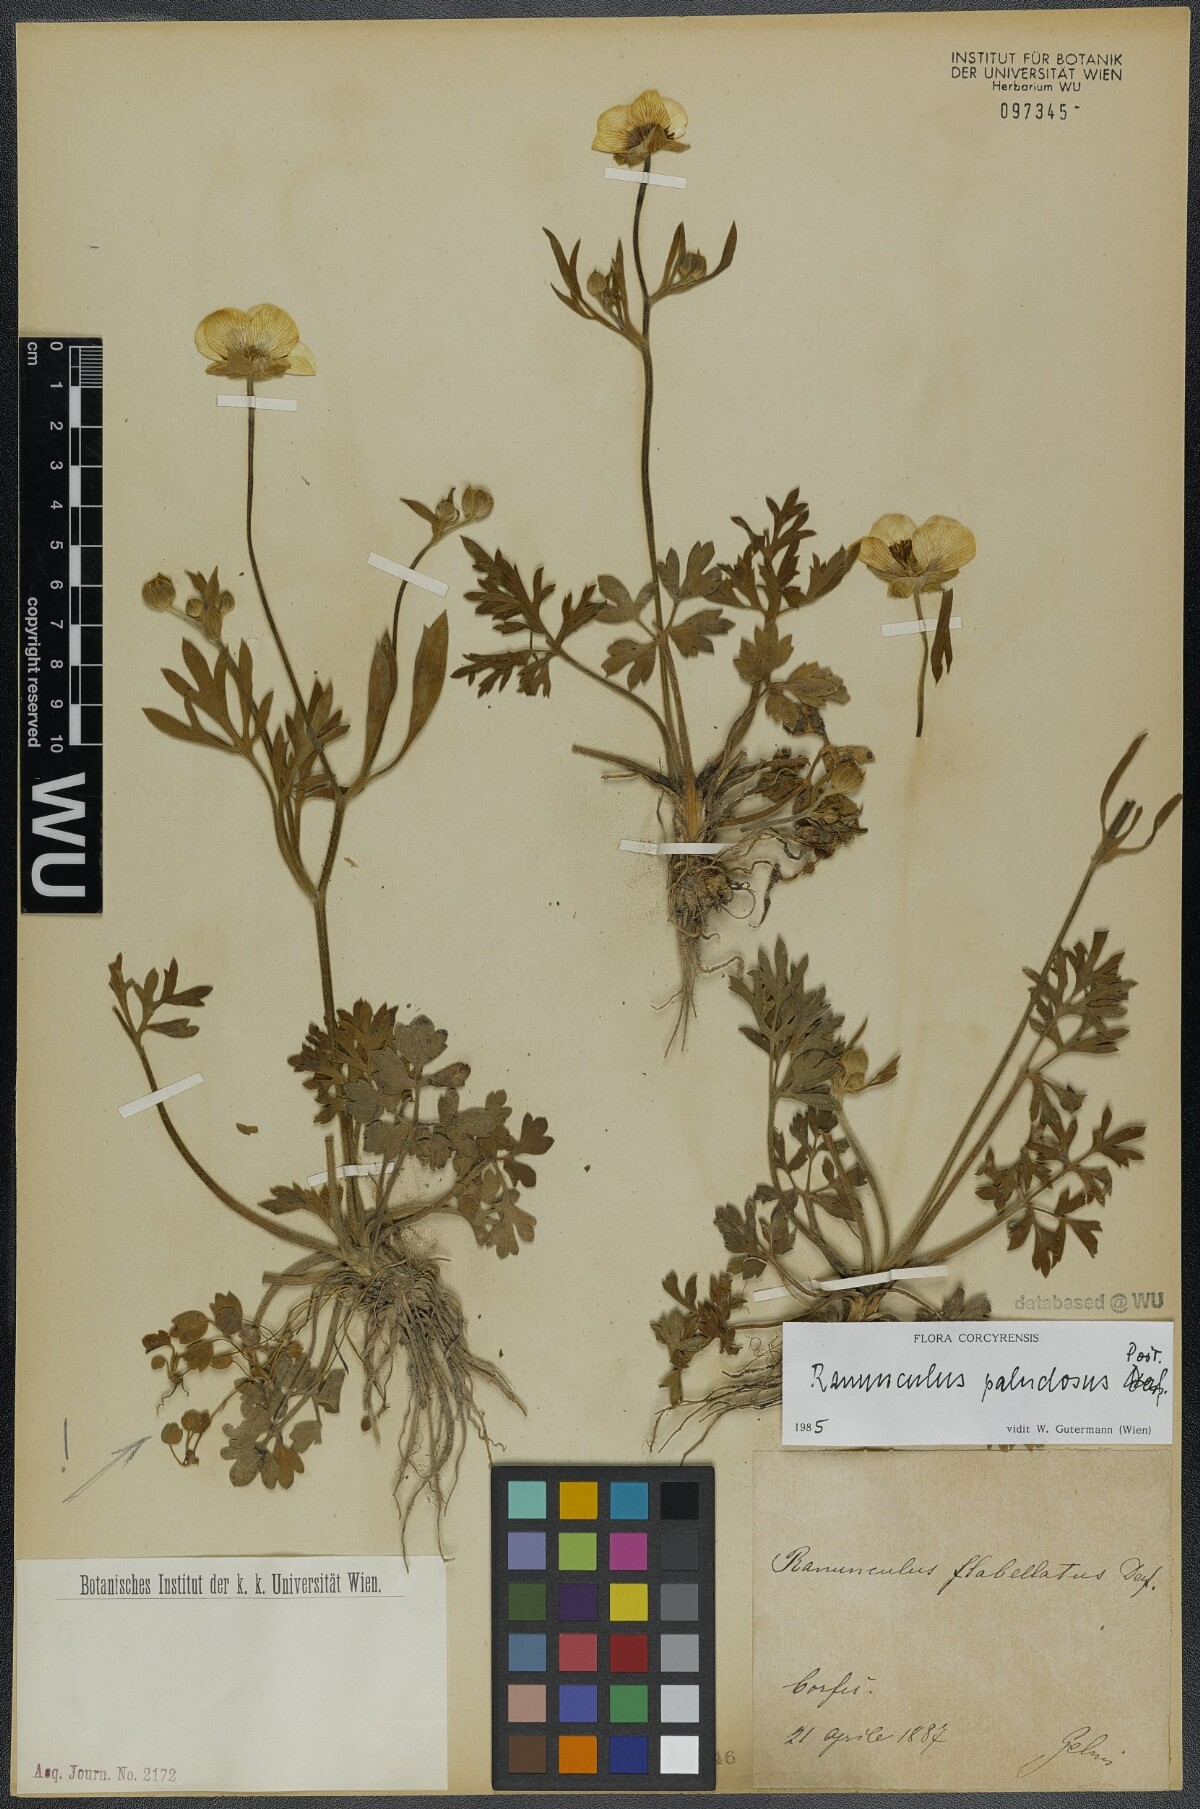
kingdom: Plantae
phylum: Tracheophyta
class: Magnoliopsida
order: Ranunculales
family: Ranunculaceae
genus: Ranunculus
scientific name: Ranunculus paludosus
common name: Jersey buttercup
